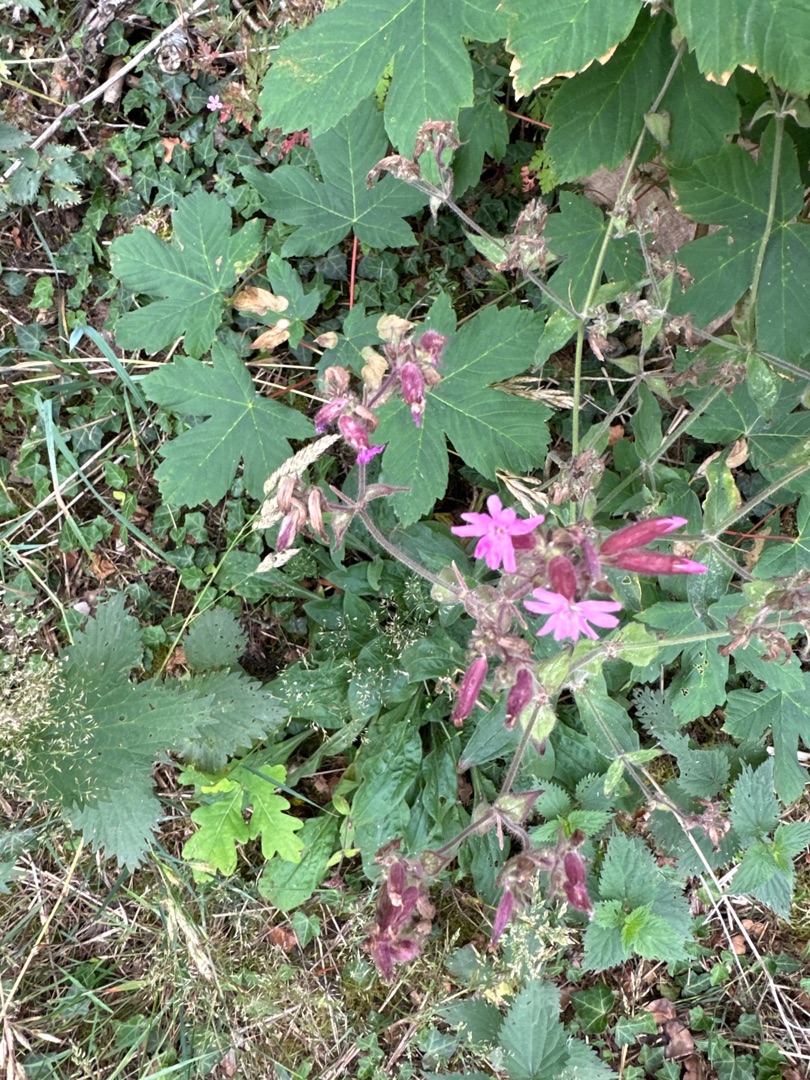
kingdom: Plantae
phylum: Tracheophyta
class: Magnoliopsida
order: Caryophyllales
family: Caryophyllaceae
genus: Silene
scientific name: Silene dioica
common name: Dagpragtstjerne
